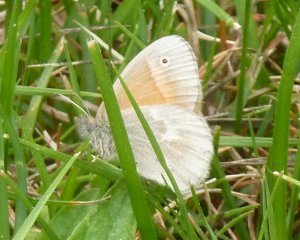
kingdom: Animalia
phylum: Arthropoda
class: Insecta
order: Lepidoptera
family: Nymphalidae
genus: Coenonympha
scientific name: Coenonympha tullia
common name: Large Heath
